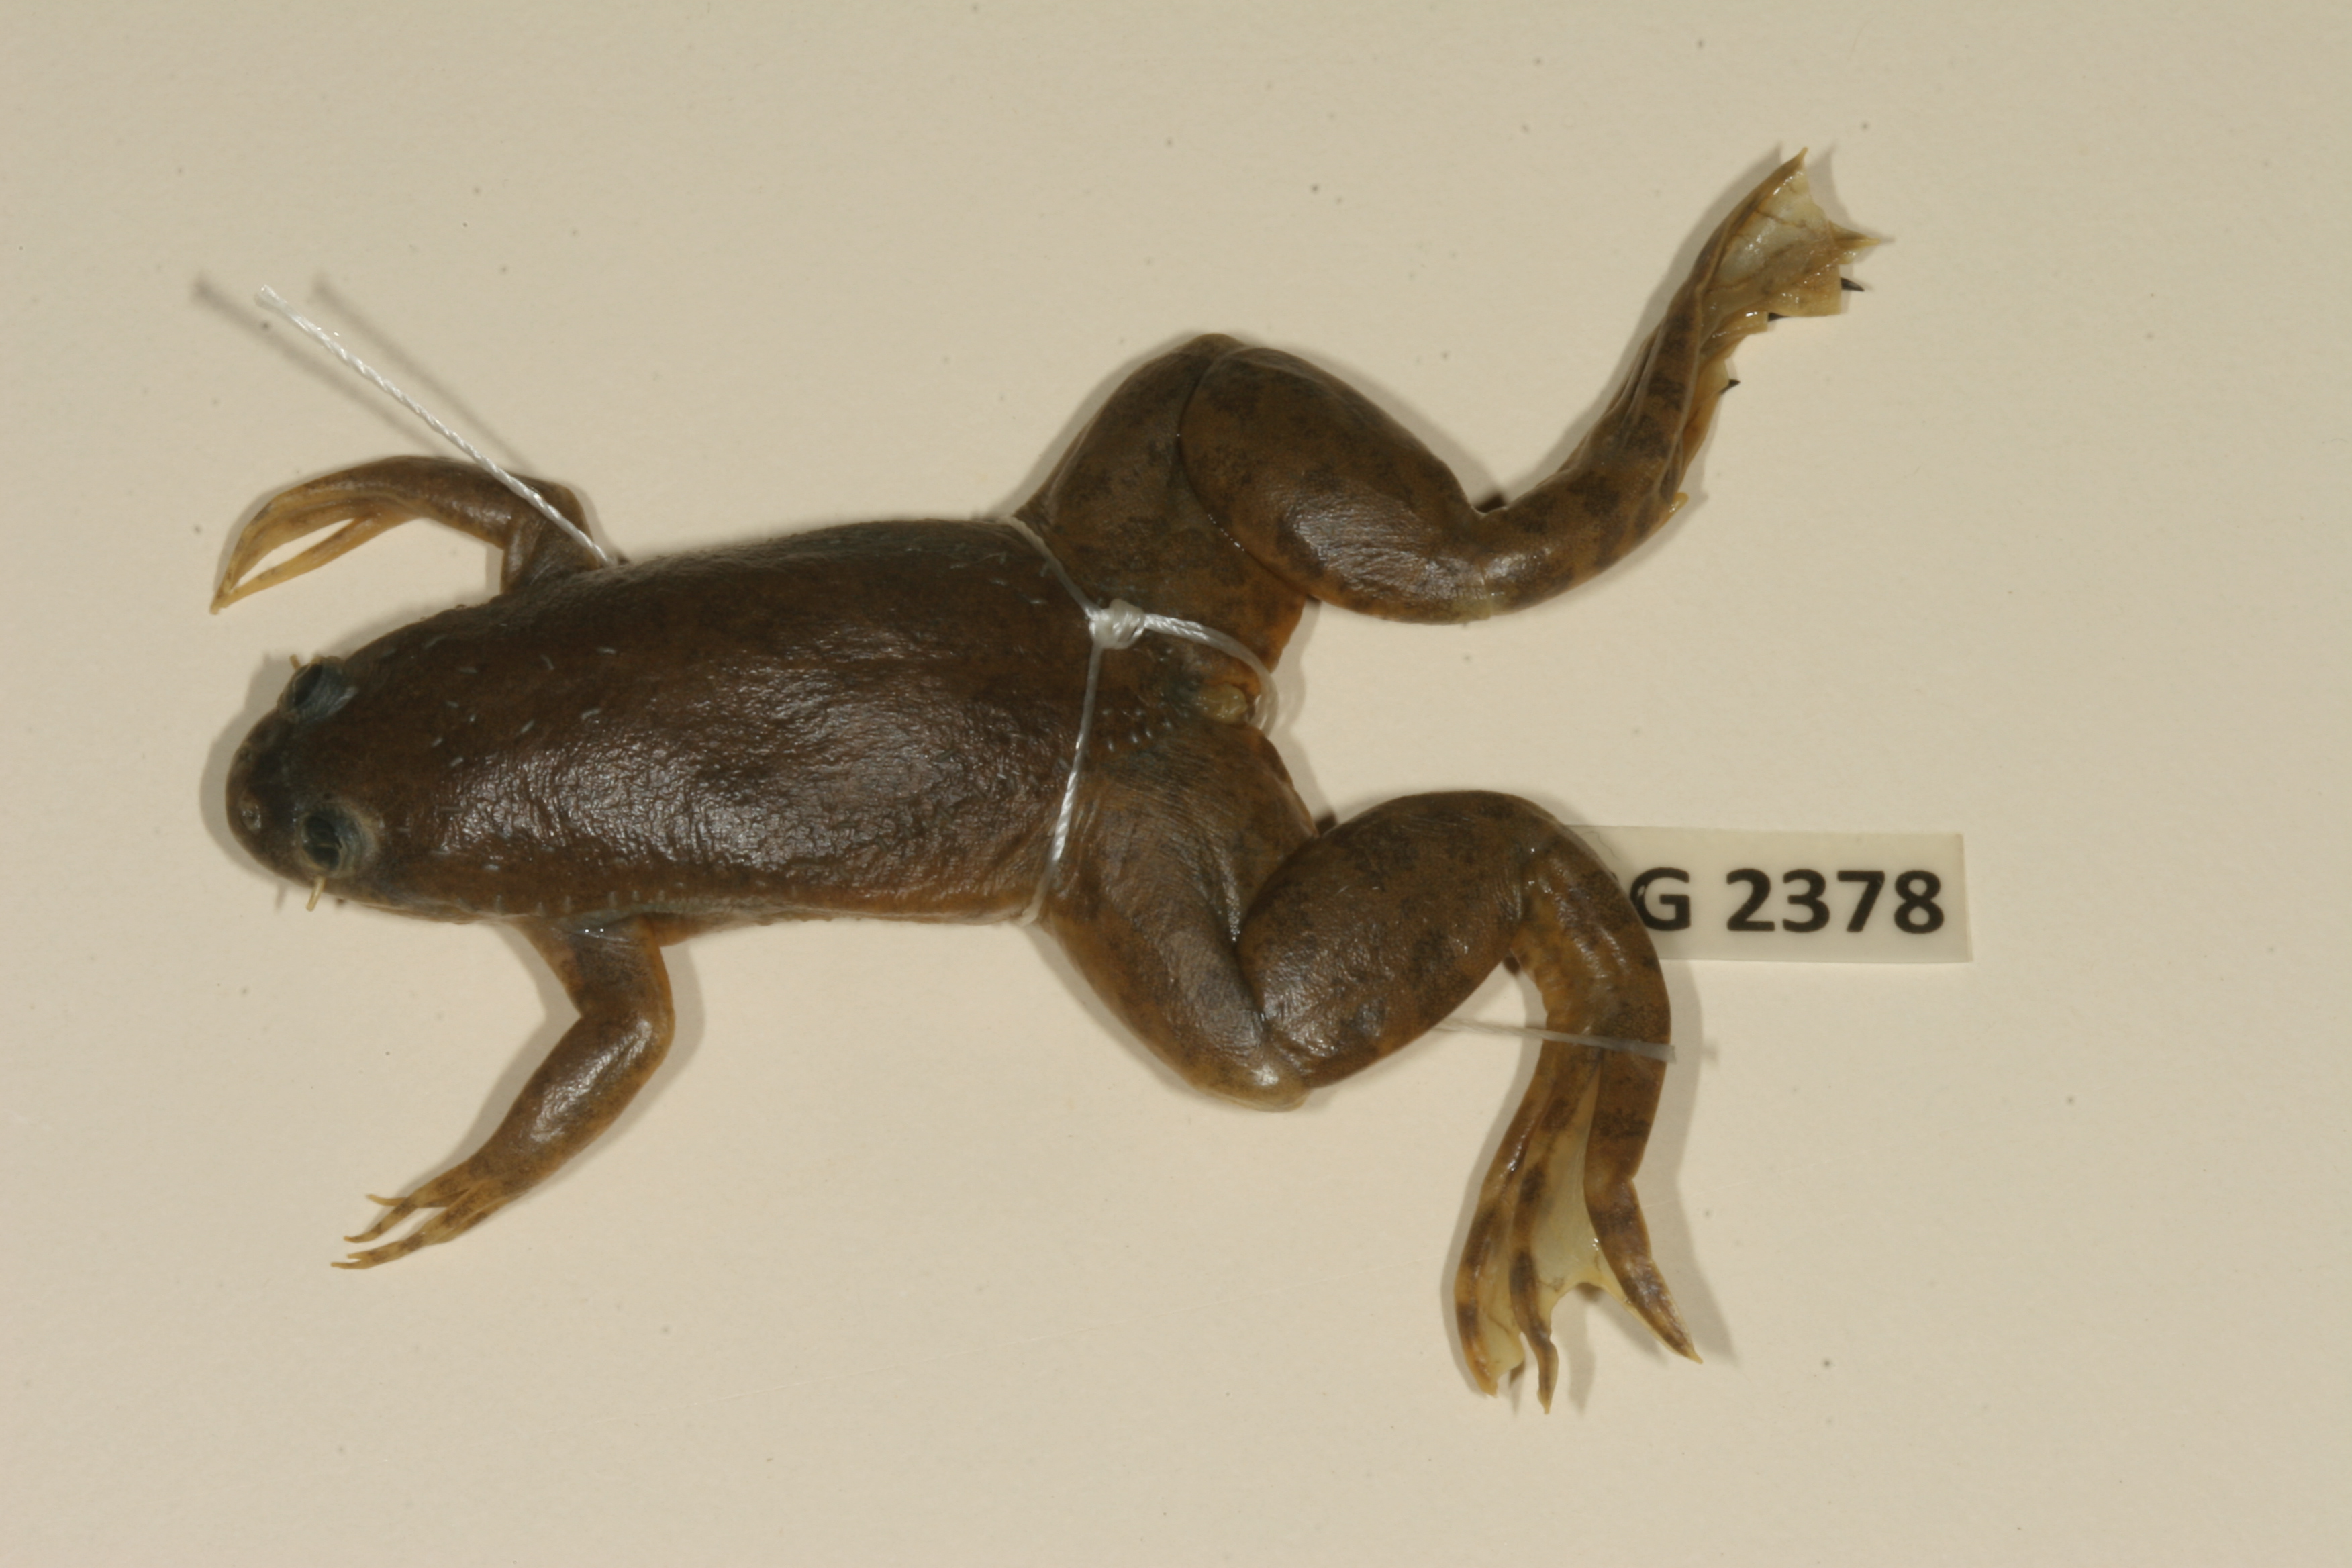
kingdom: Animalia
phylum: Chordata
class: Amphibia
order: Anura
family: Pipidae
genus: Xenopus
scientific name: Xenopus muelleri
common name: Muller's clawed frog
